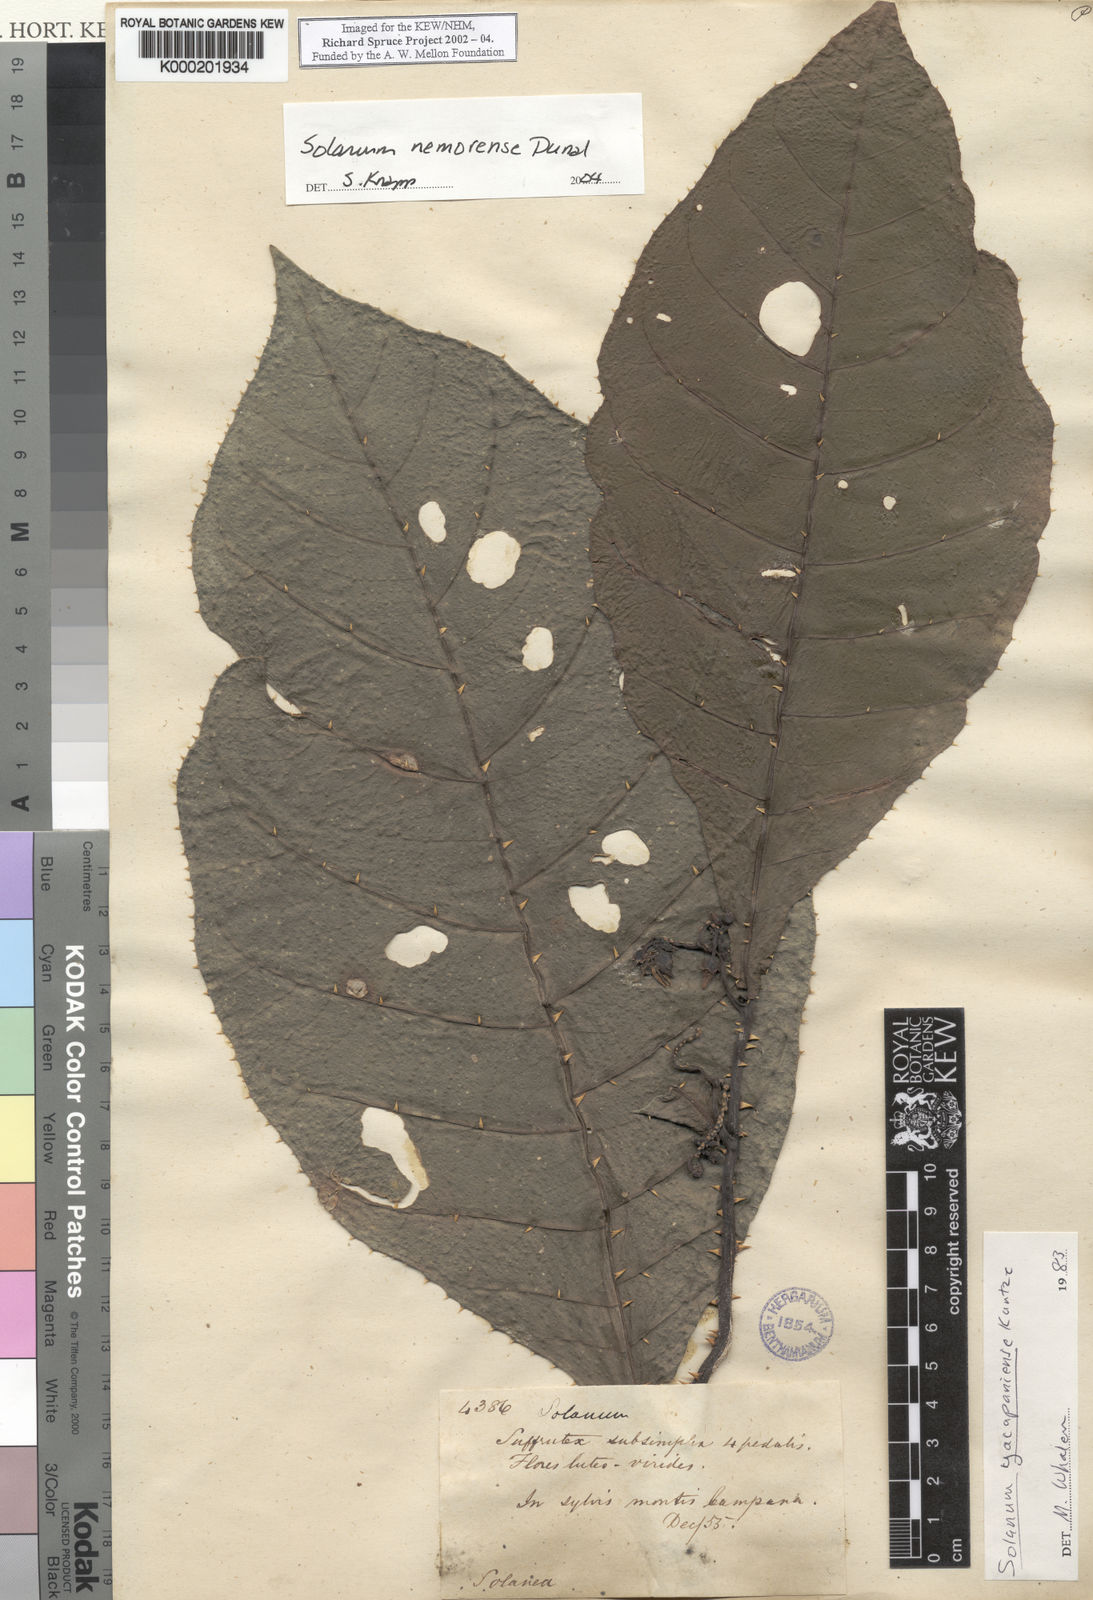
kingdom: Plantae
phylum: Tracheophyta
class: Magnoliopsida
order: Solanales
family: Solanaceae
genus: Solanum
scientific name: Solanum nemorense
